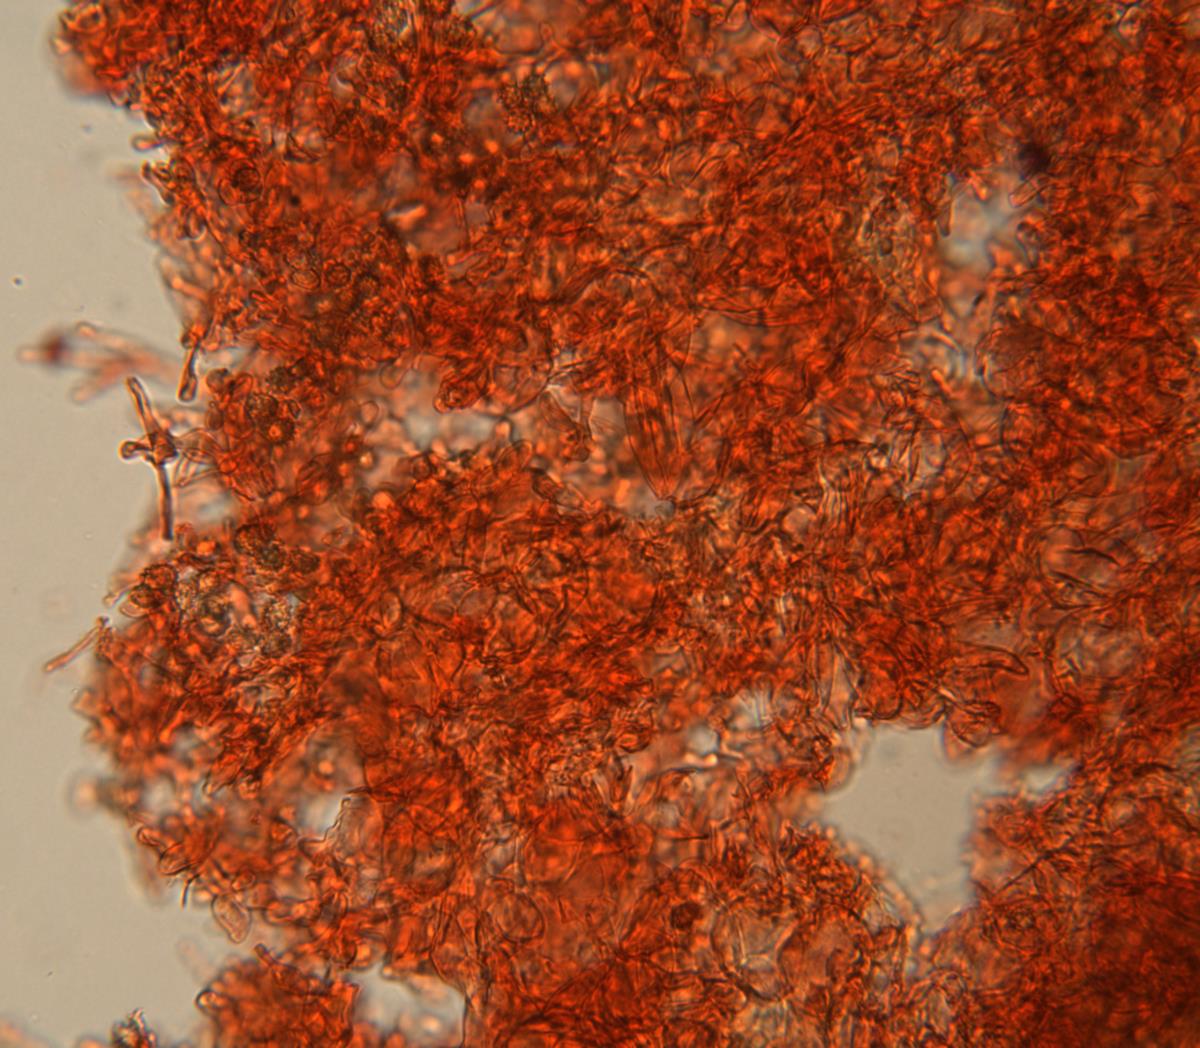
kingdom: Fungi
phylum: Basidiomycota
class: Agaricomycetes
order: Agaricales
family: Stephanosporaceae
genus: Stephanospora
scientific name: Stephanospora kanuka
